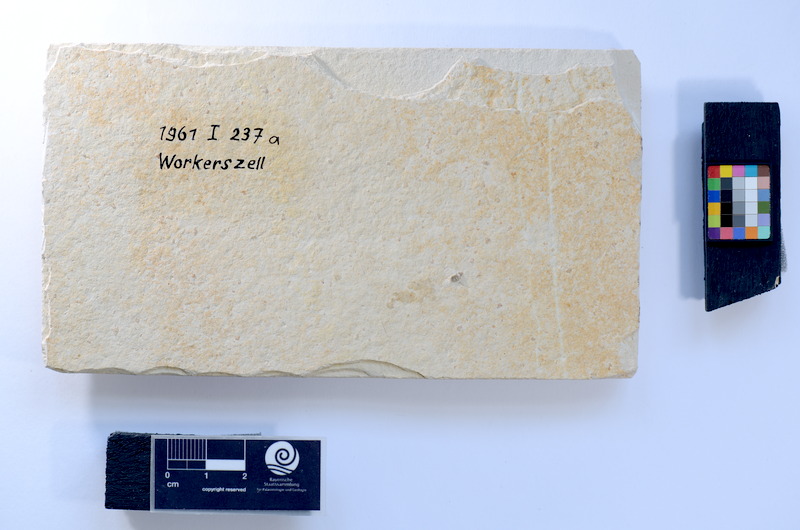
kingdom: Animalia
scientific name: Animalia
